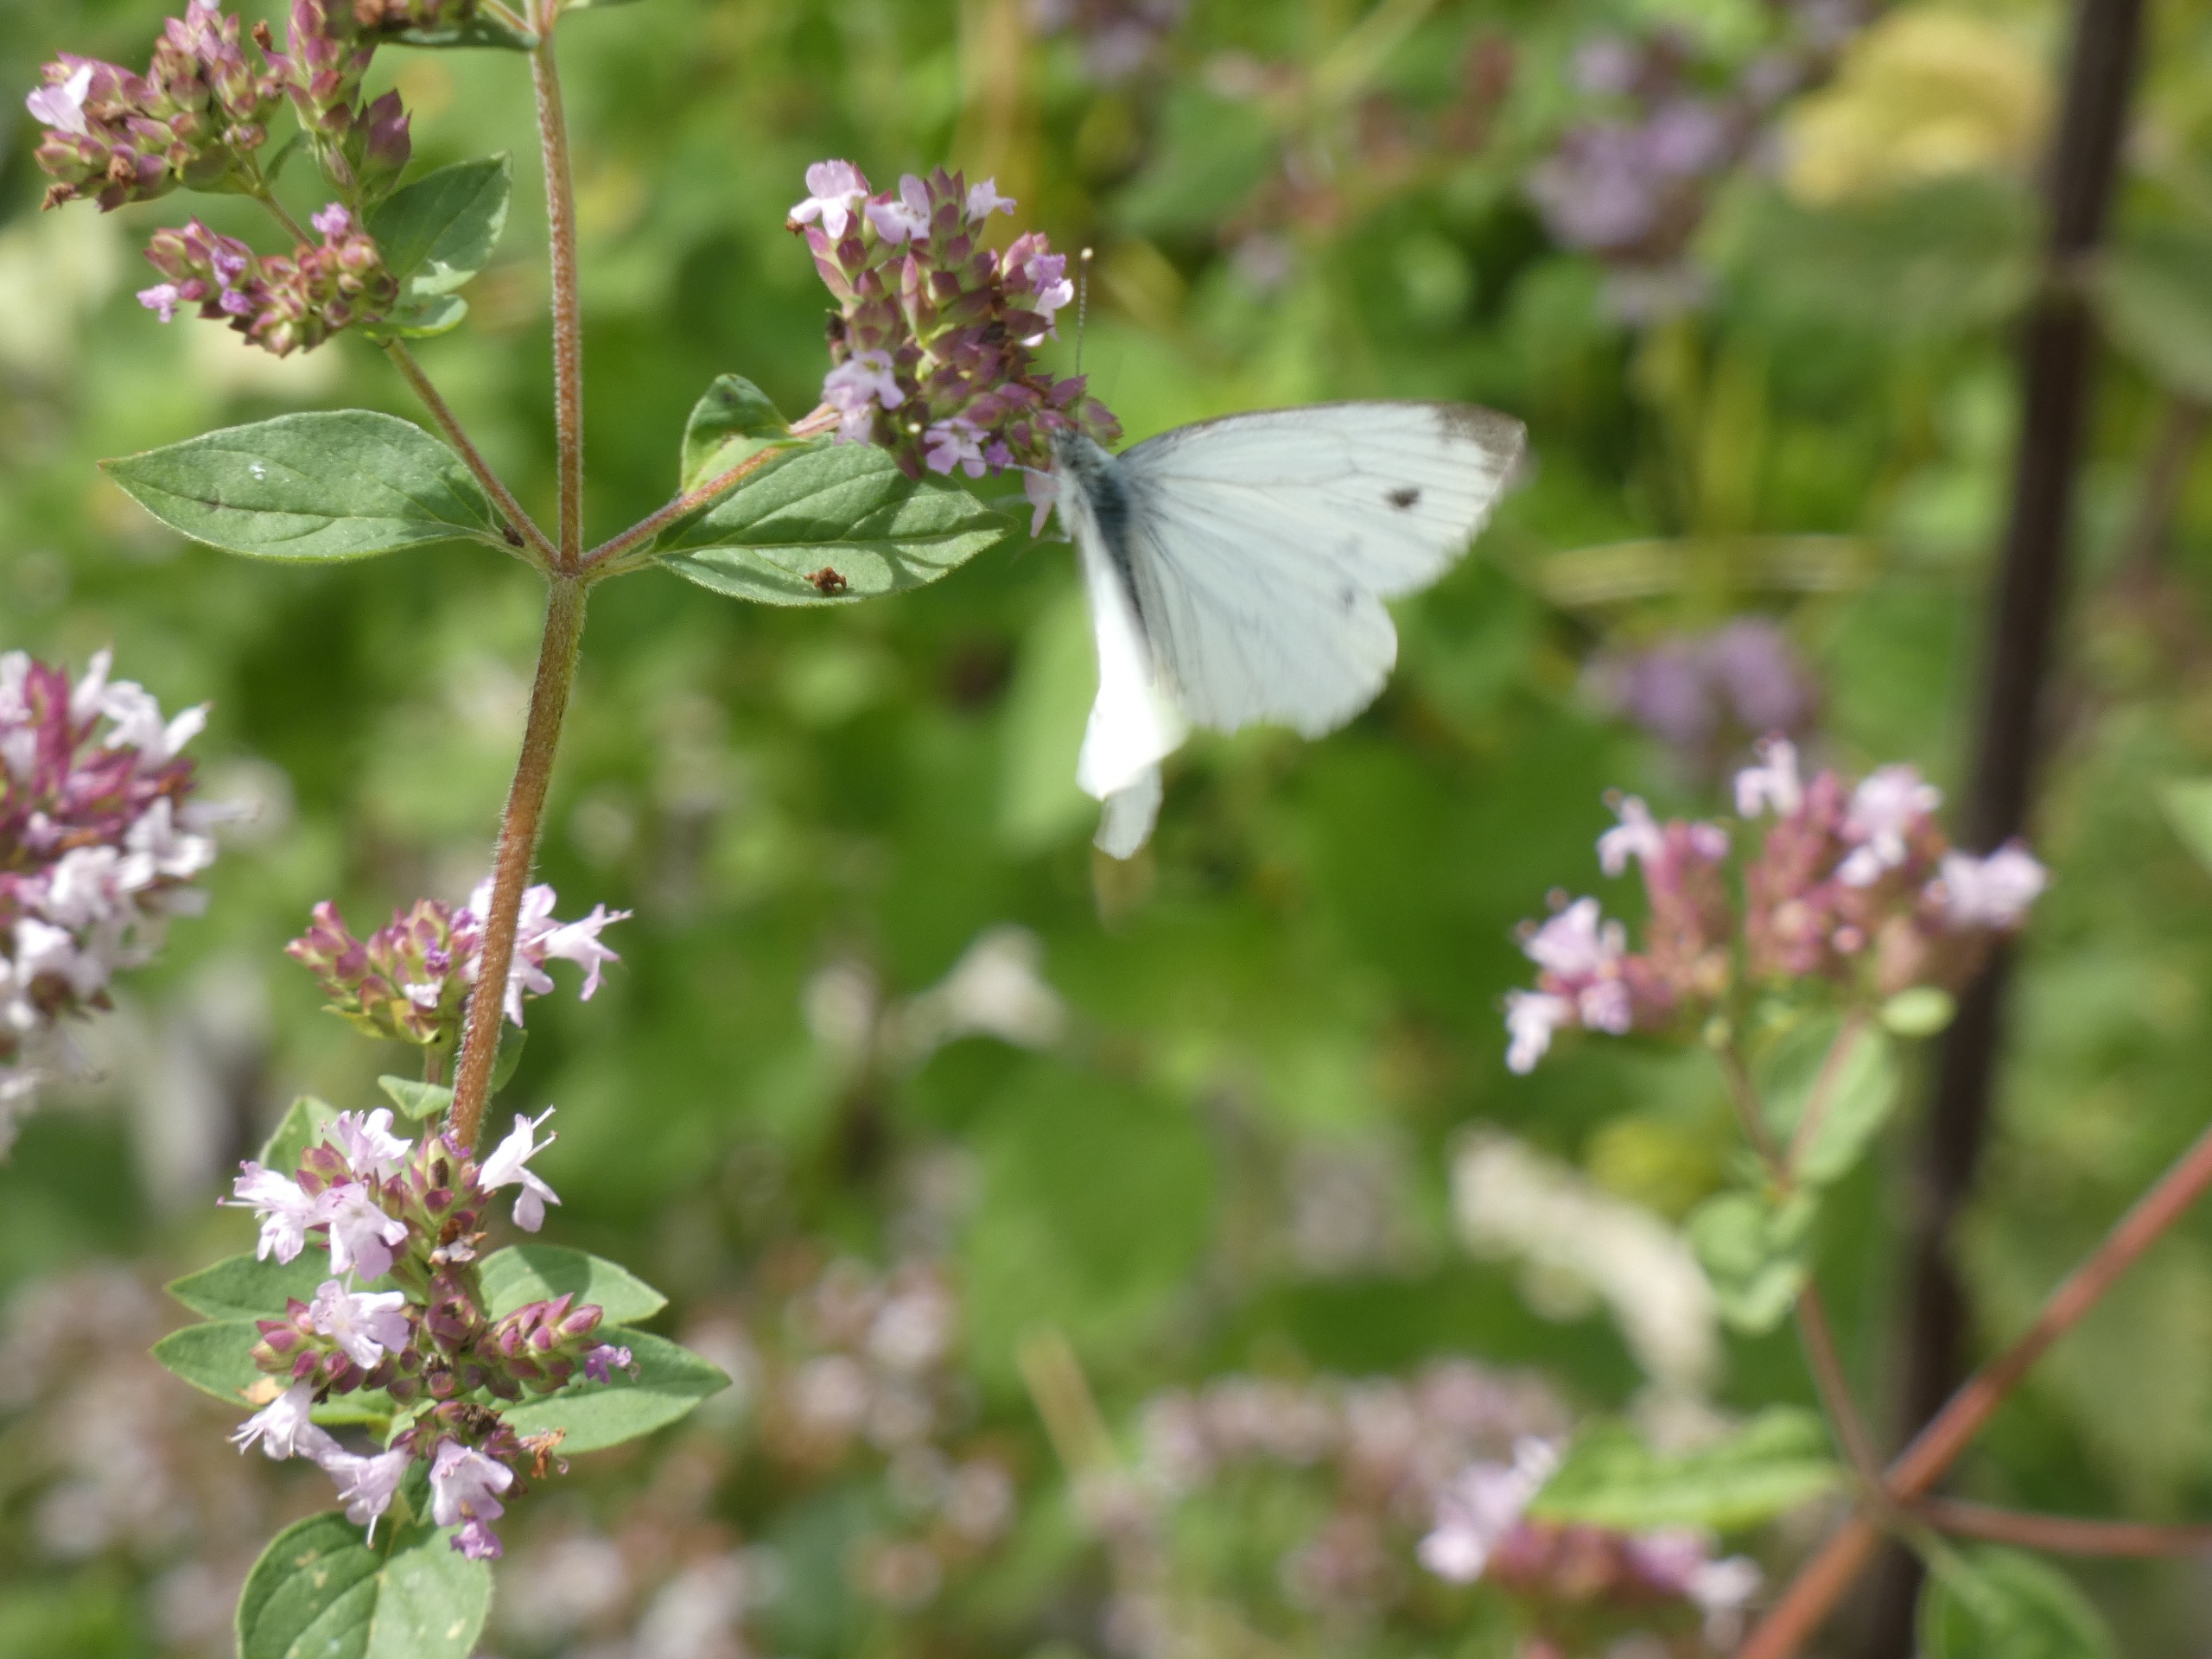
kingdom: Animalia
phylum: Arthropoda
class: Insecta
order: Lepidoptera
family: Pieridae
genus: Pieris
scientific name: Pieris napi
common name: Grønåret kålsommerfugl
